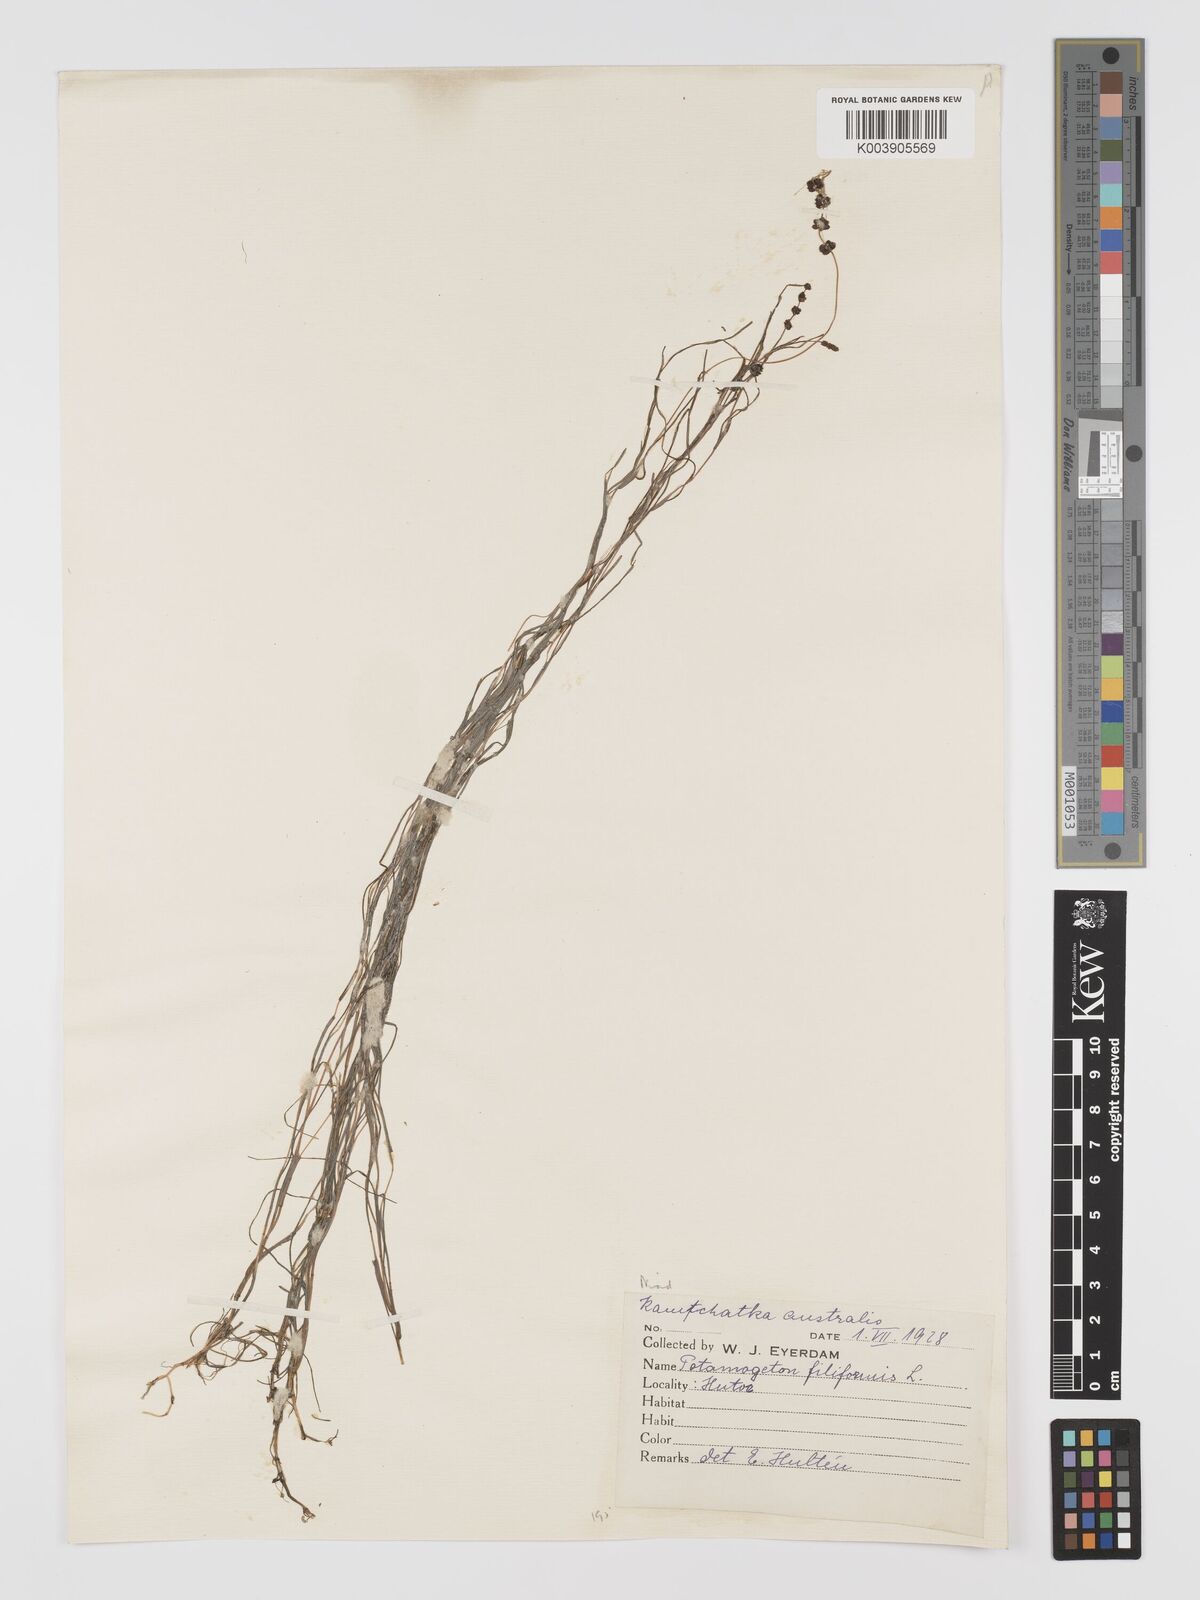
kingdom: Plantae
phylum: Tracheophyta
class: Liliopsida
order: Alismatales
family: Potamogetonaceae
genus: Stuckenia
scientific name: Stuckenia filiformis
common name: Alpine thread-leaved pondweed
